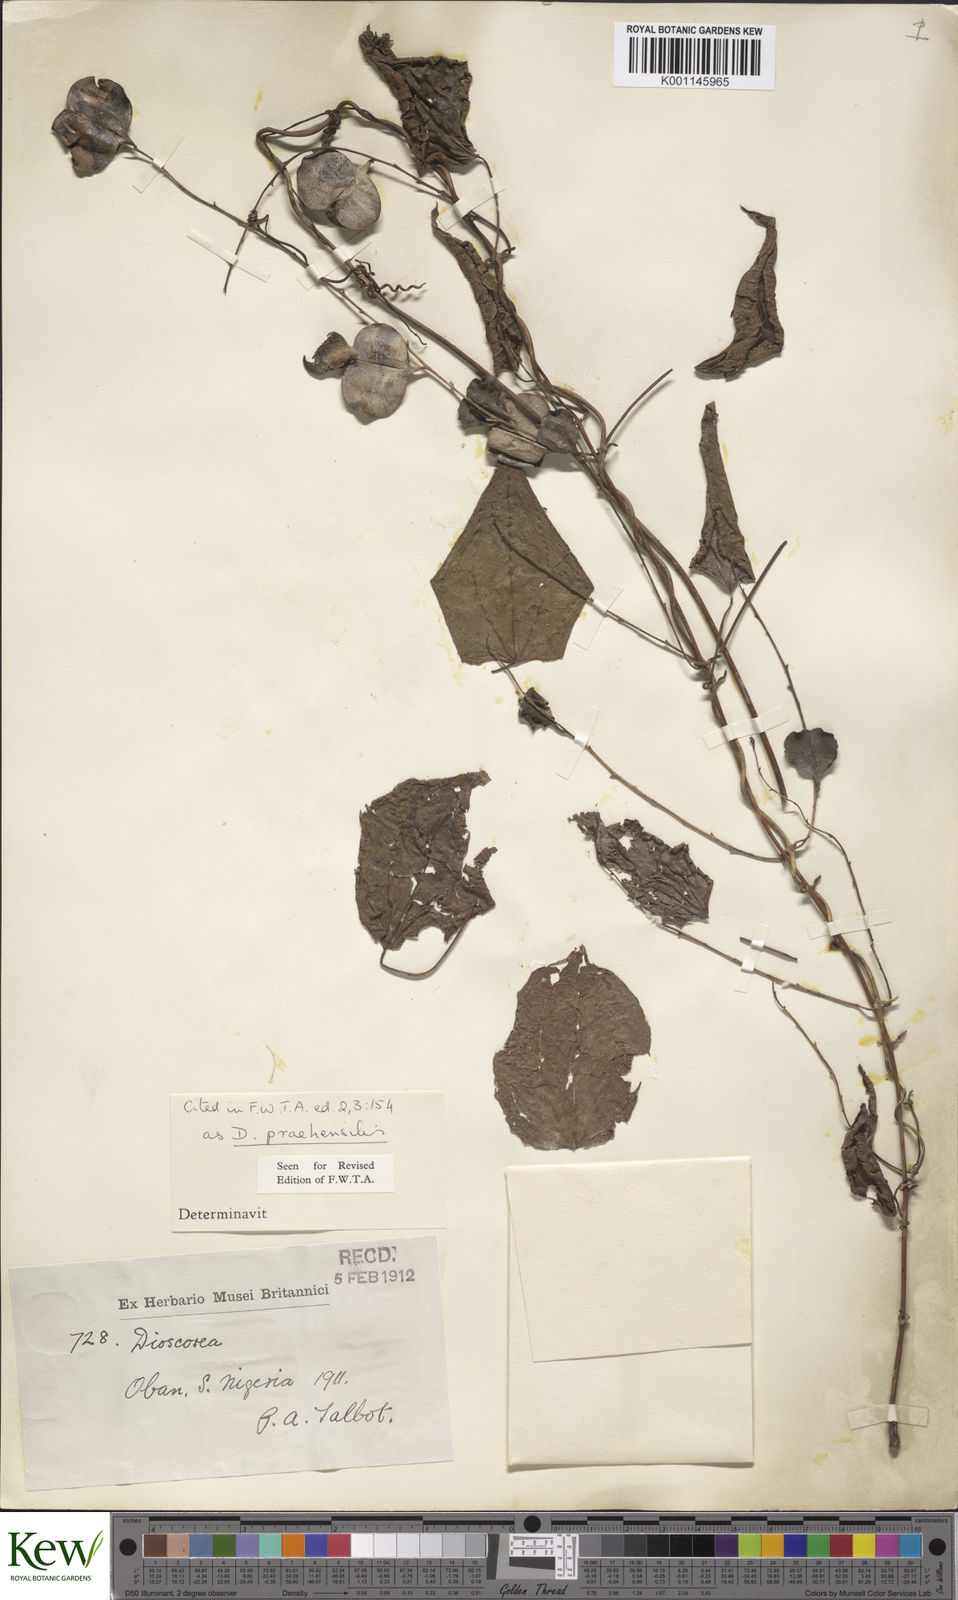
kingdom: Plantae
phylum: Tracheophyta
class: Liliopsida
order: Dioscoreales
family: Dioscoreaceae
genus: Dioscorea
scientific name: Dioscorea praehensilis
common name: Bush yam
